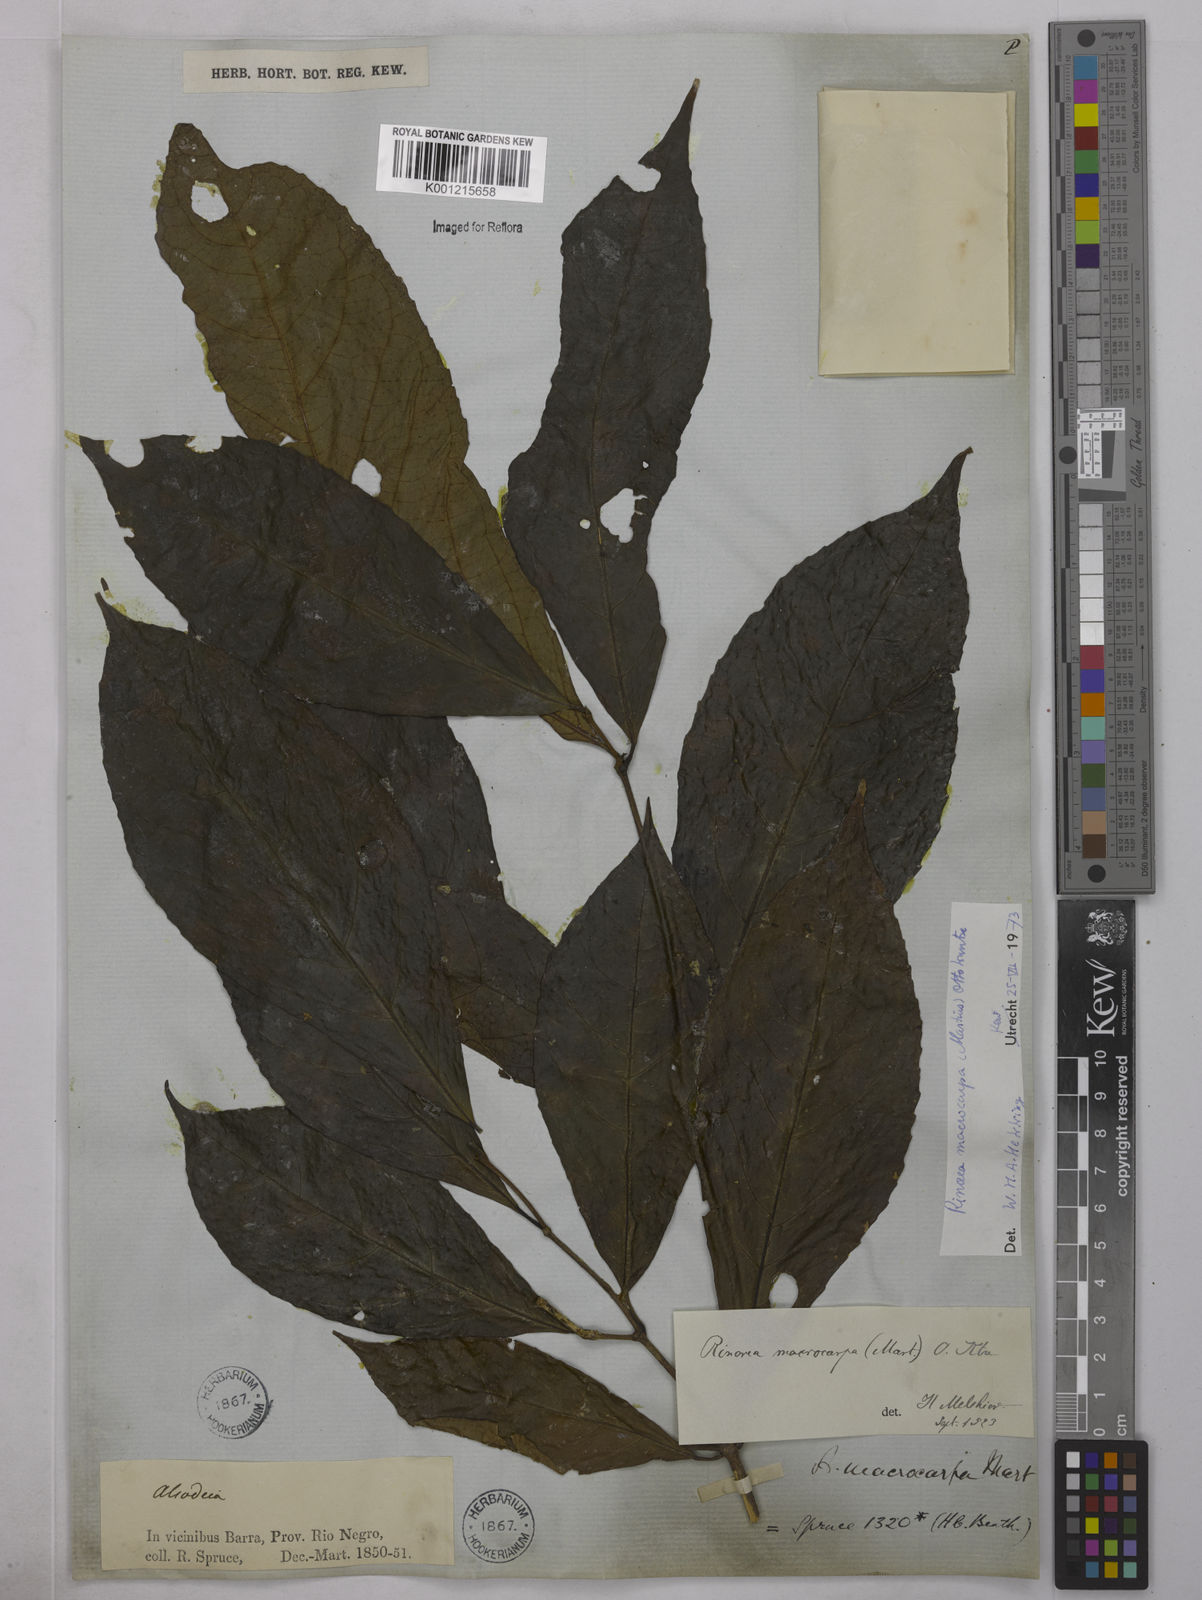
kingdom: Plantae
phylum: Tracheophyta
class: Magnoliopsida
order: Malpighiales
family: Violaceae
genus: Rinorea
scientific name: Rinorea macrocarpa
